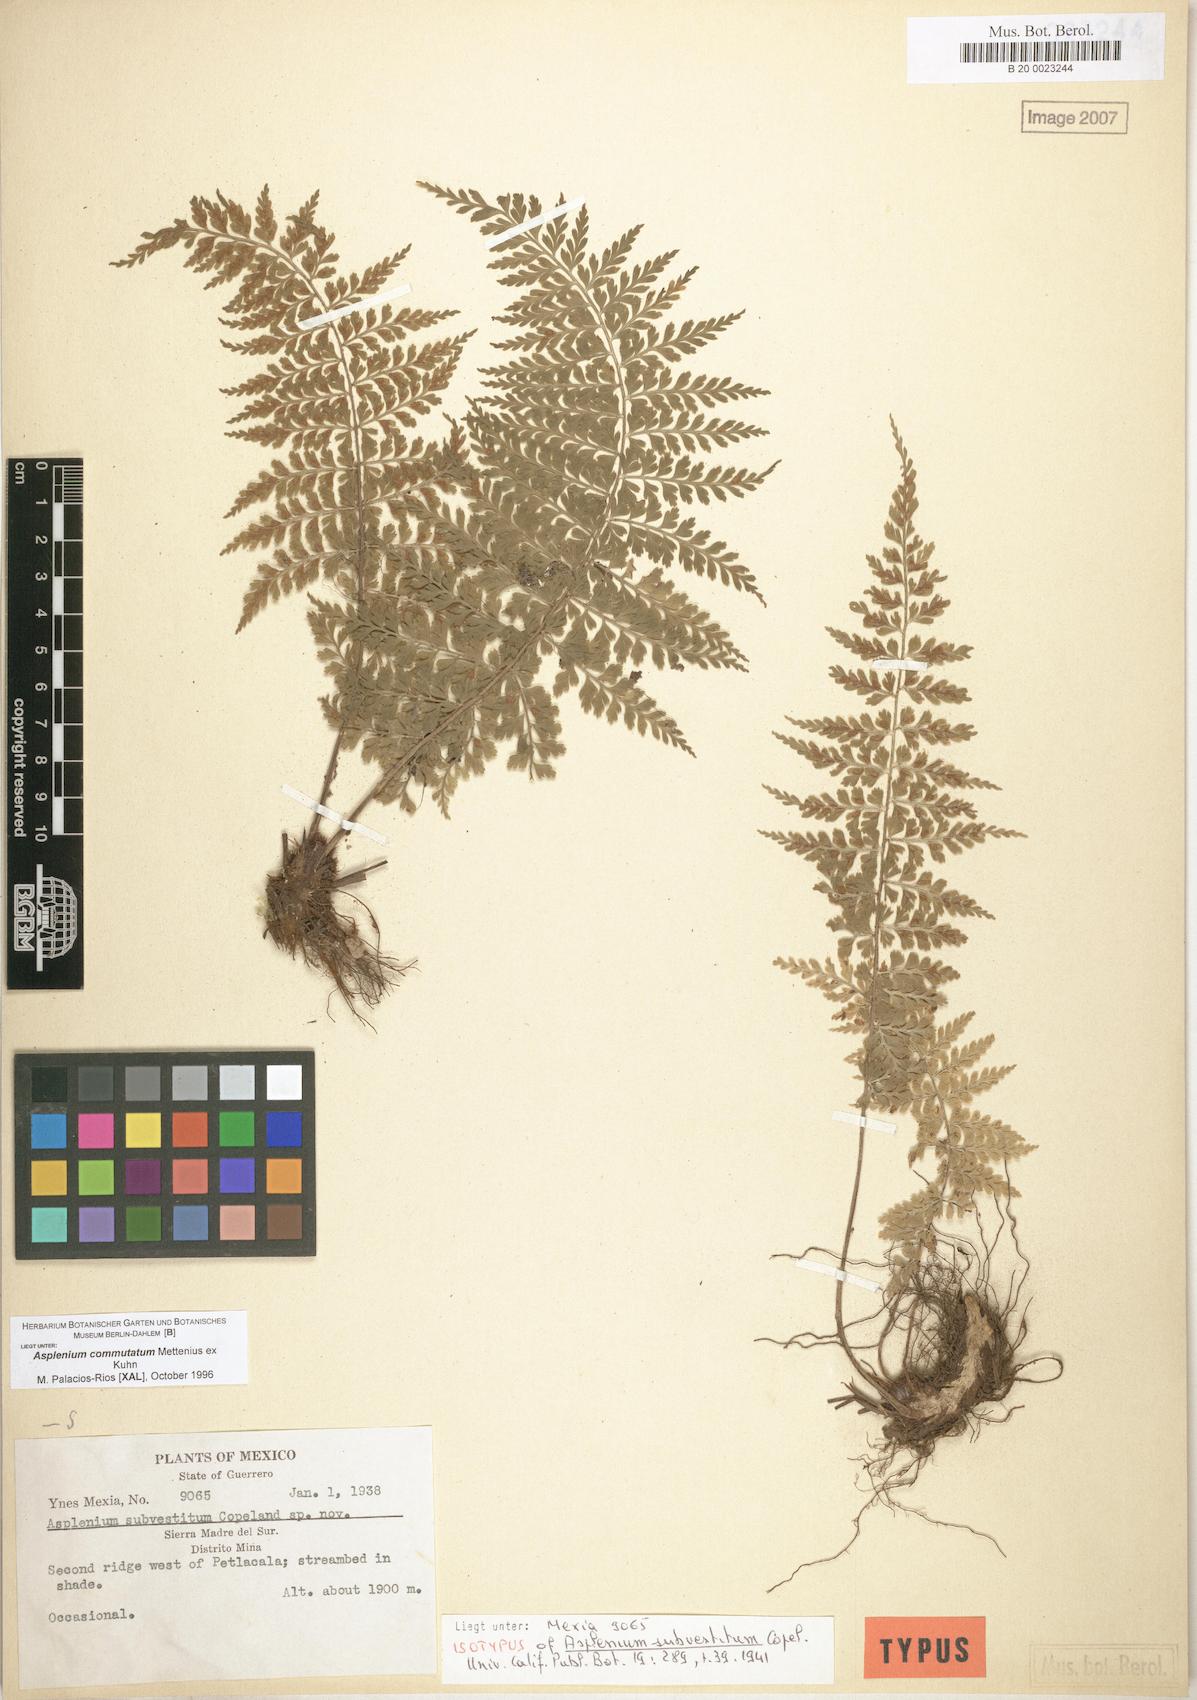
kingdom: Plantae
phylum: Tracheophyta
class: Polypodiopsida
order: Polypodiales
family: Aspleniaceae
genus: Asplenium
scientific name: Asplenium blepharophorum
